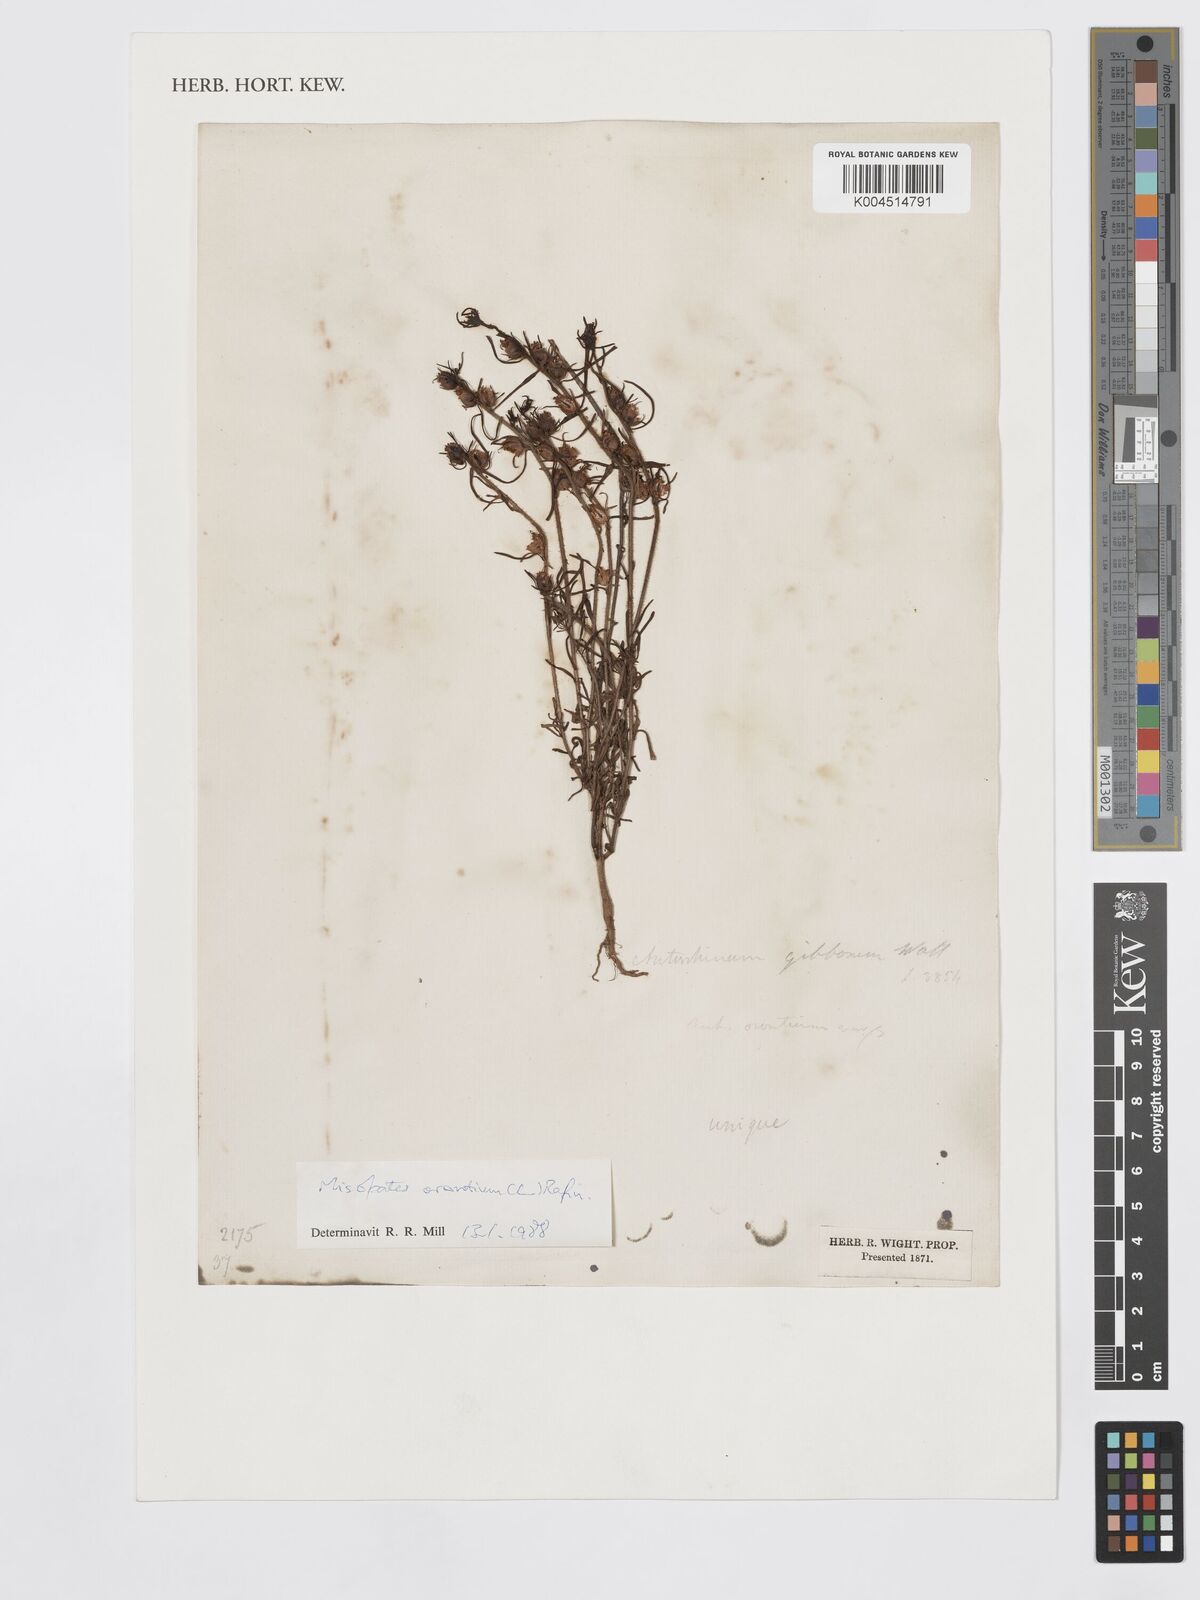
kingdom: Plantae
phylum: Tracheophyta
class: Magnoliopsida
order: Lamiales
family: Plantaginaceae
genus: Misopates
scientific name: Misopates orontium
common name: Weasel's-snout
